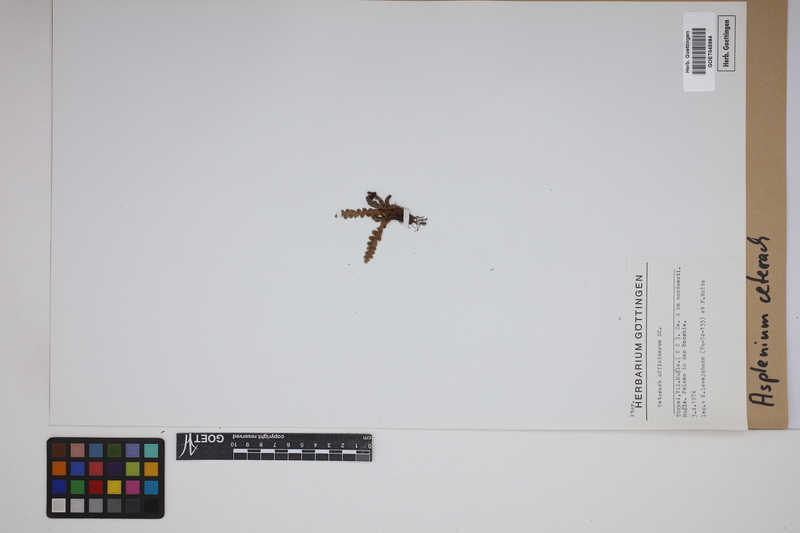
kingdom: Plantae
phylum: Tracheophyta
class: Polypodiopsida
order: Polypodiales
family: Aspleniaceae
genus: Asplenium
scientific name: Asplenium ceterach
